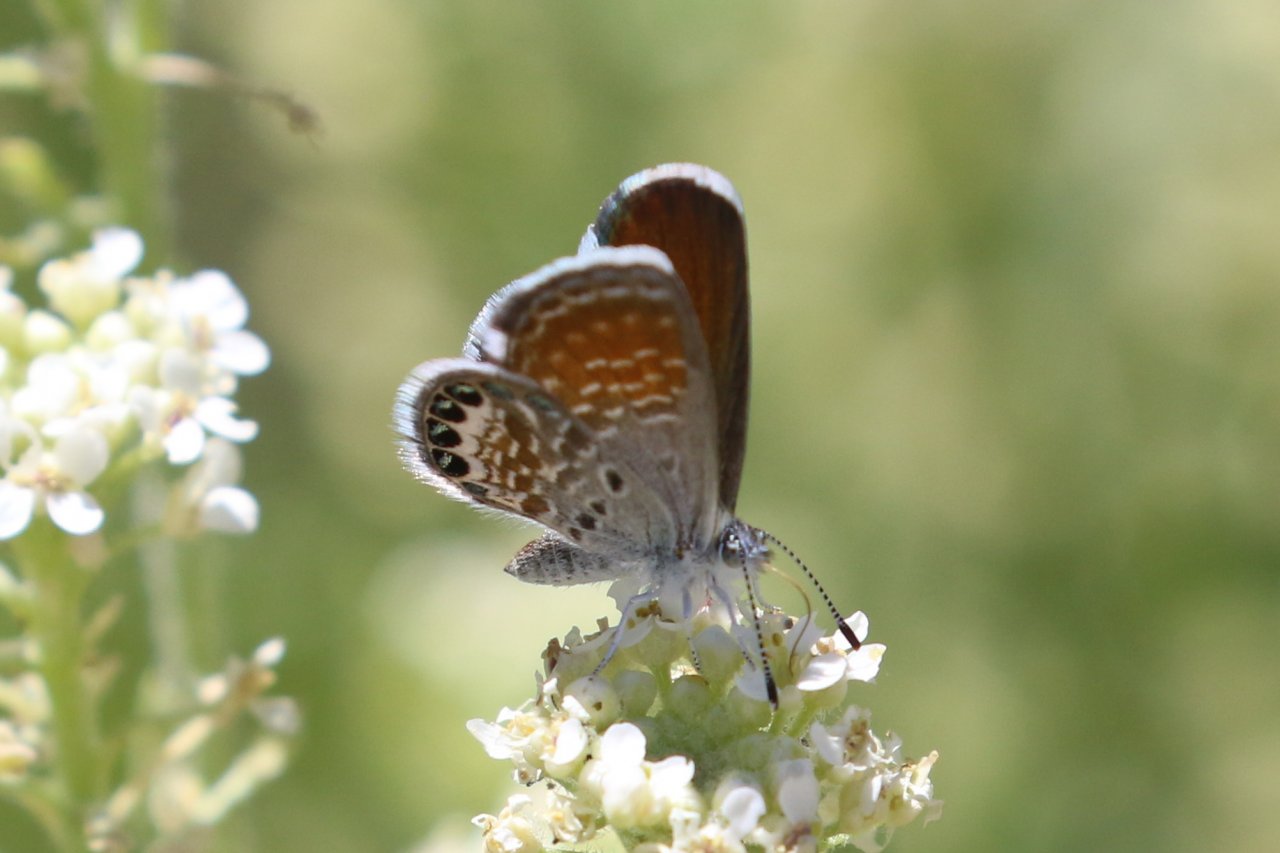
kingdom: Animalia
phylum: Arthropoda
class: Insecta
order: Lepidoptera
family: Lycaenidae
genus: Leptotes
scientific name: Leptotes marina
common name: Marine Blue
